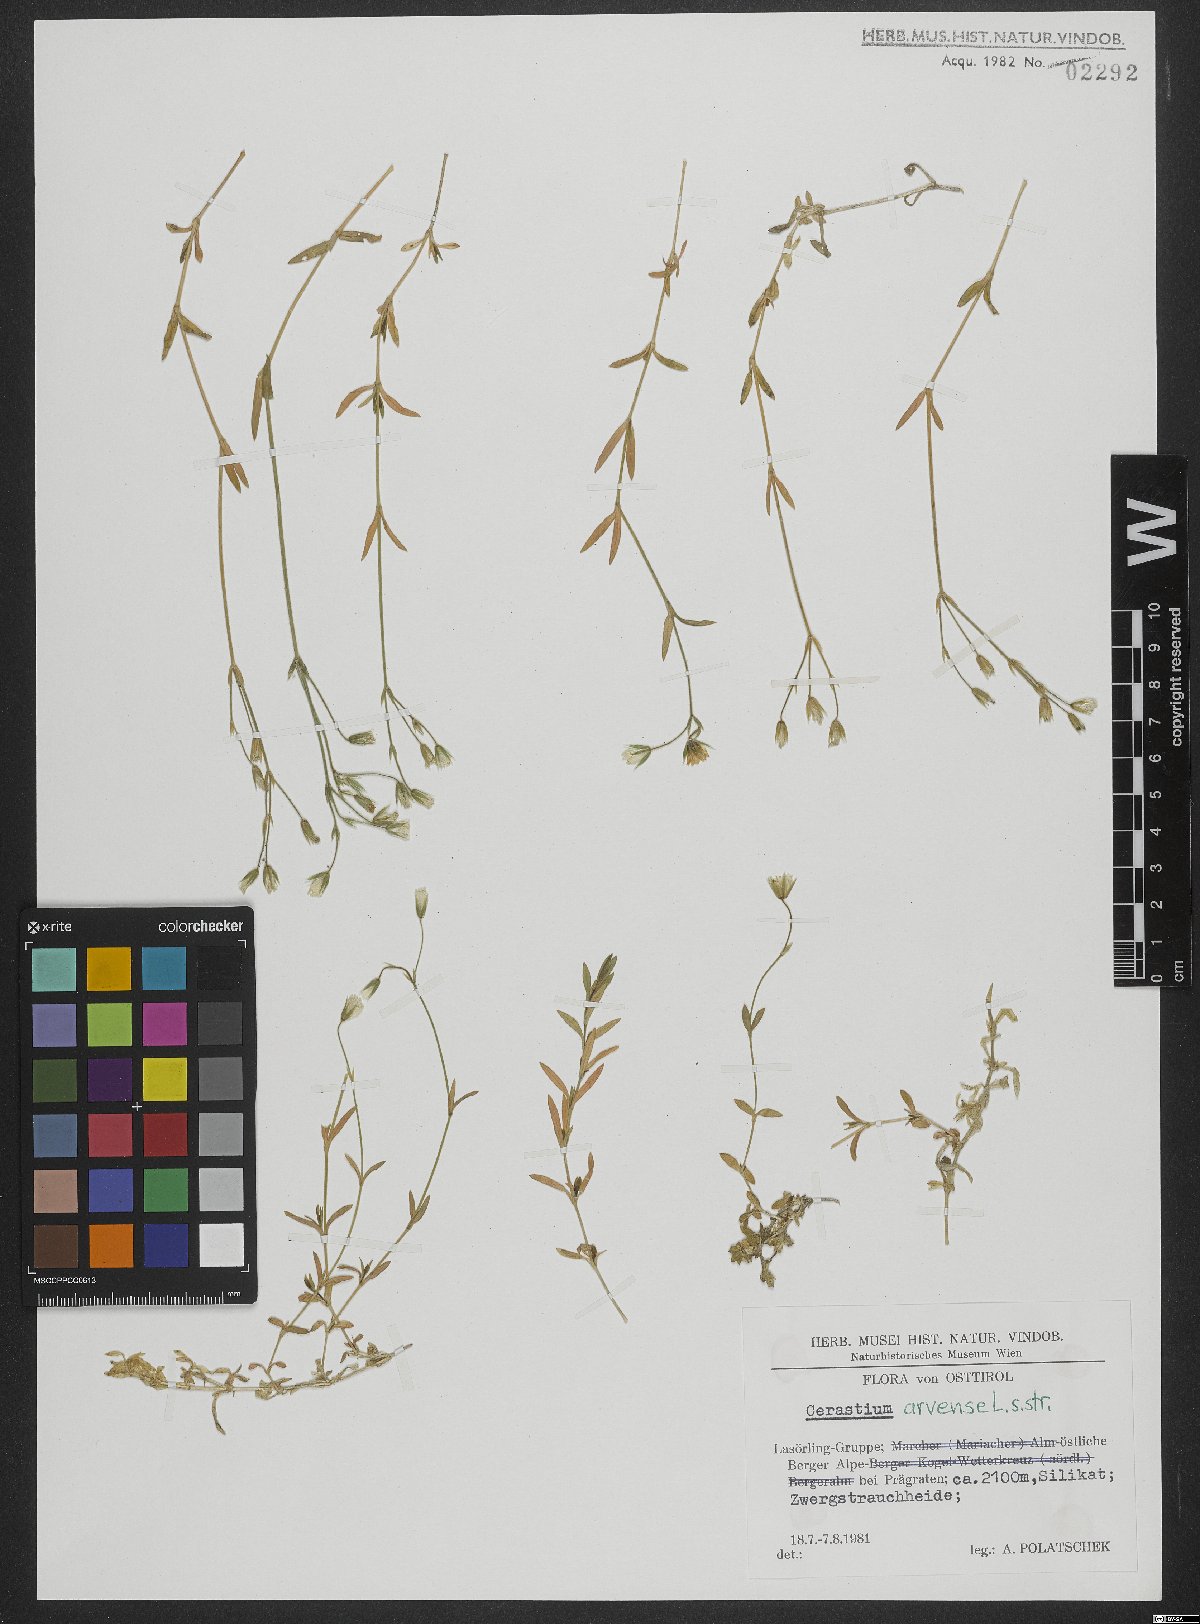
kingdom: Plantae
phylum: Tracheophyta
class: Magnoliopsida
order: Caryophyllales
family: Caryophyllaceae
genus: Cerastium
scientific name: Cerastium elongatum
